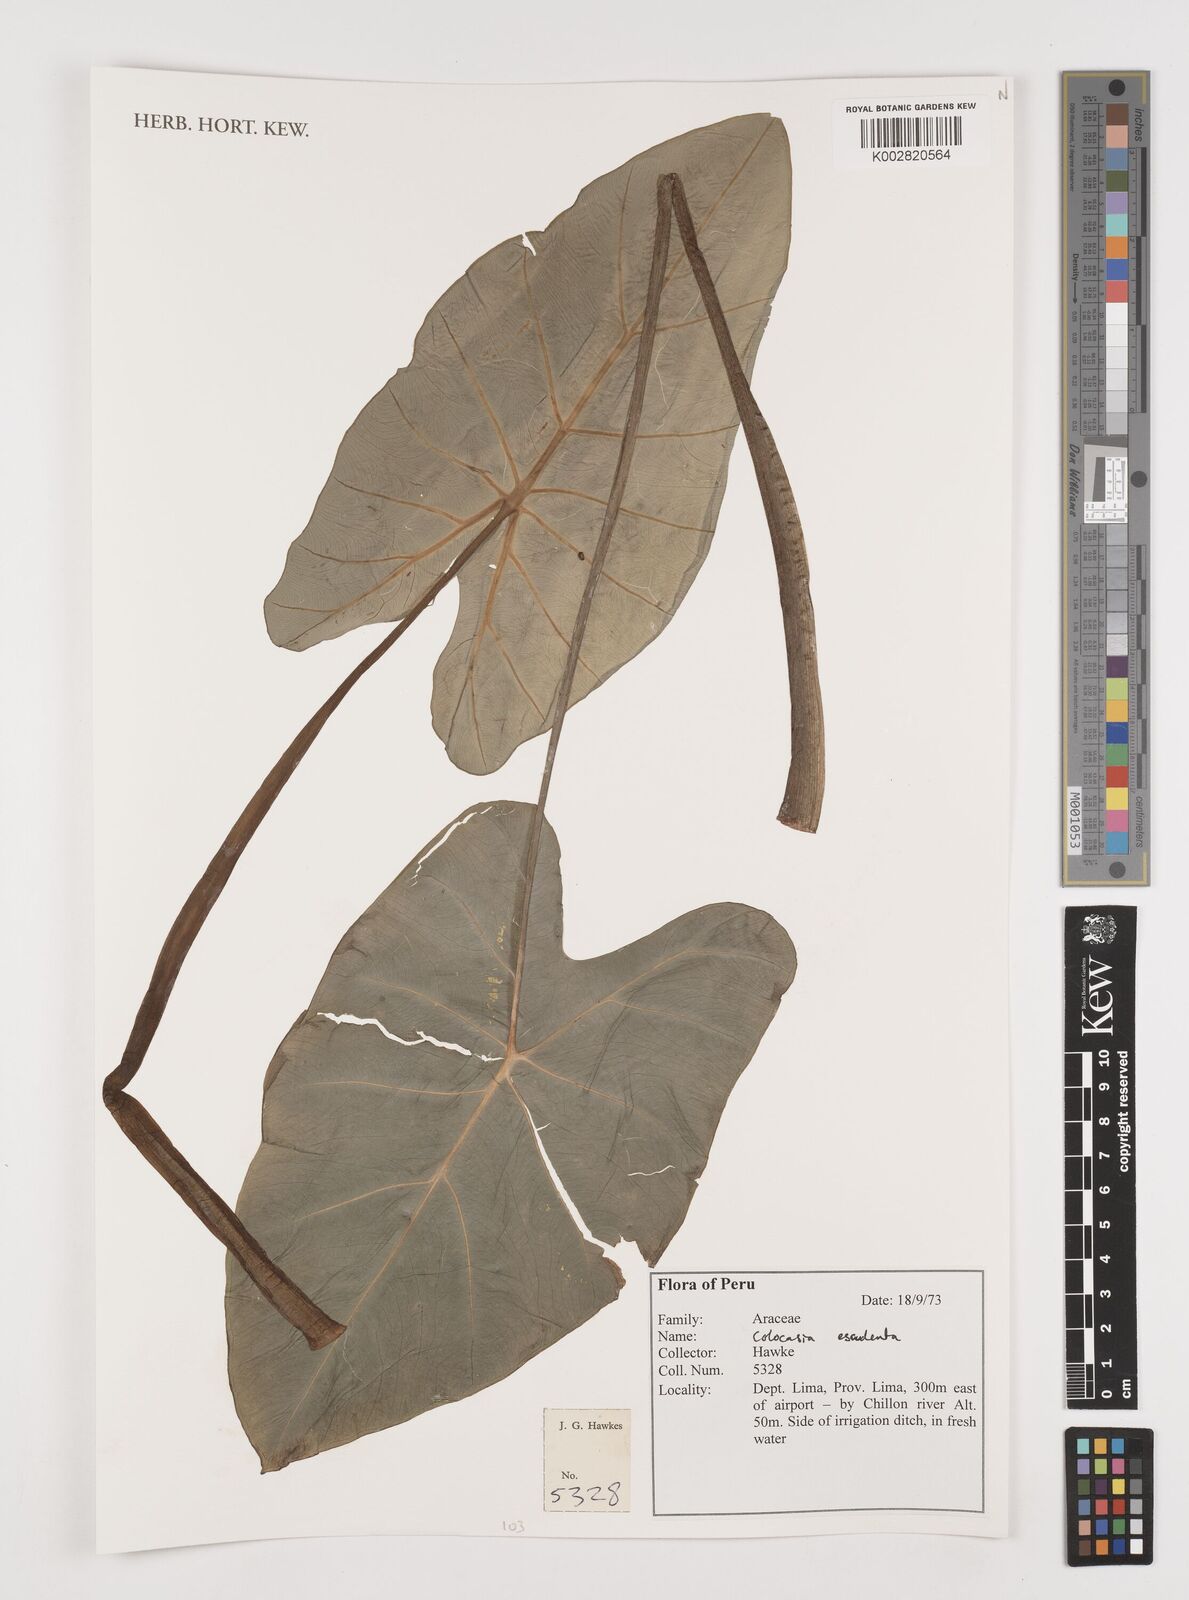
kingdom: Plantae
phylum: Tracheophyta
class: Liliopsida
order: Alismatales
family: Araceae
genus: Colocasia
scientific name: Colocasia esculenta
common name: Taro
